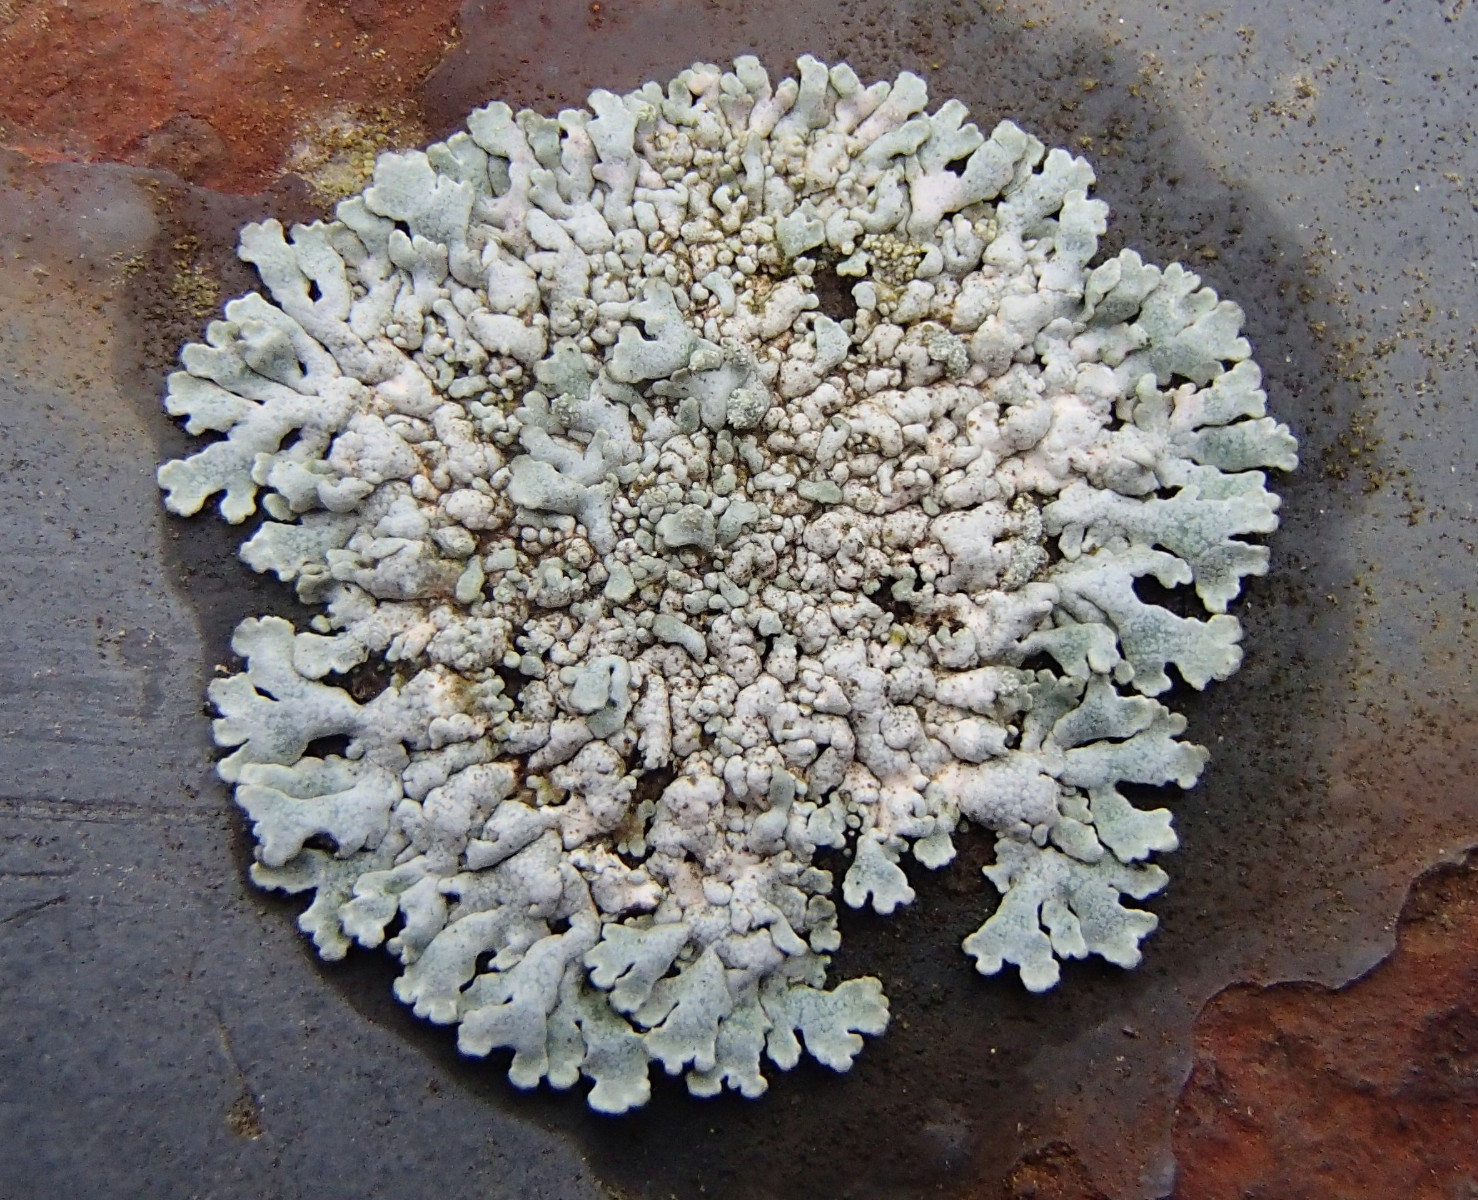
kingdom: Fungi
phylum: Ascomycota
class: Lecanoromycetes
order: Caliciales
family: Physciaceae
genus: Physcia
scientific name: Physcia caesia
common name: blågrå rosetlav
